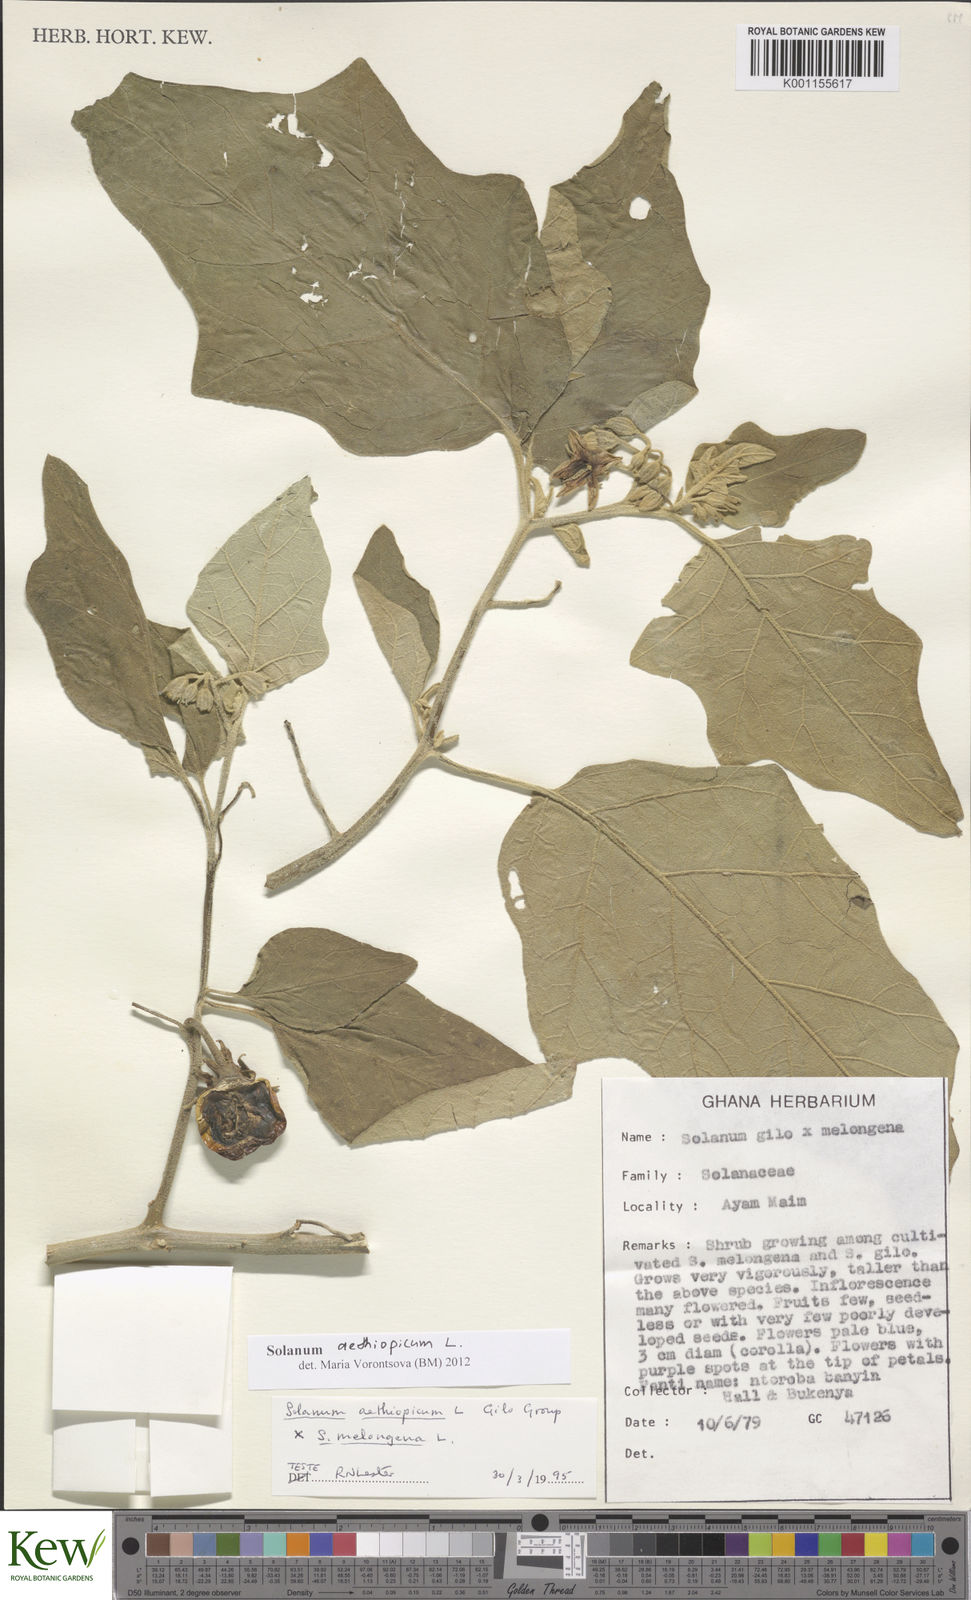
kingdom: Plantae
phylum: Tracheophyta
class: Magnoliopsida
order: Solanales
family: Solanaceae
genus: Solanum
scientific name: Solanum aethiopicum
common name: Gilo
